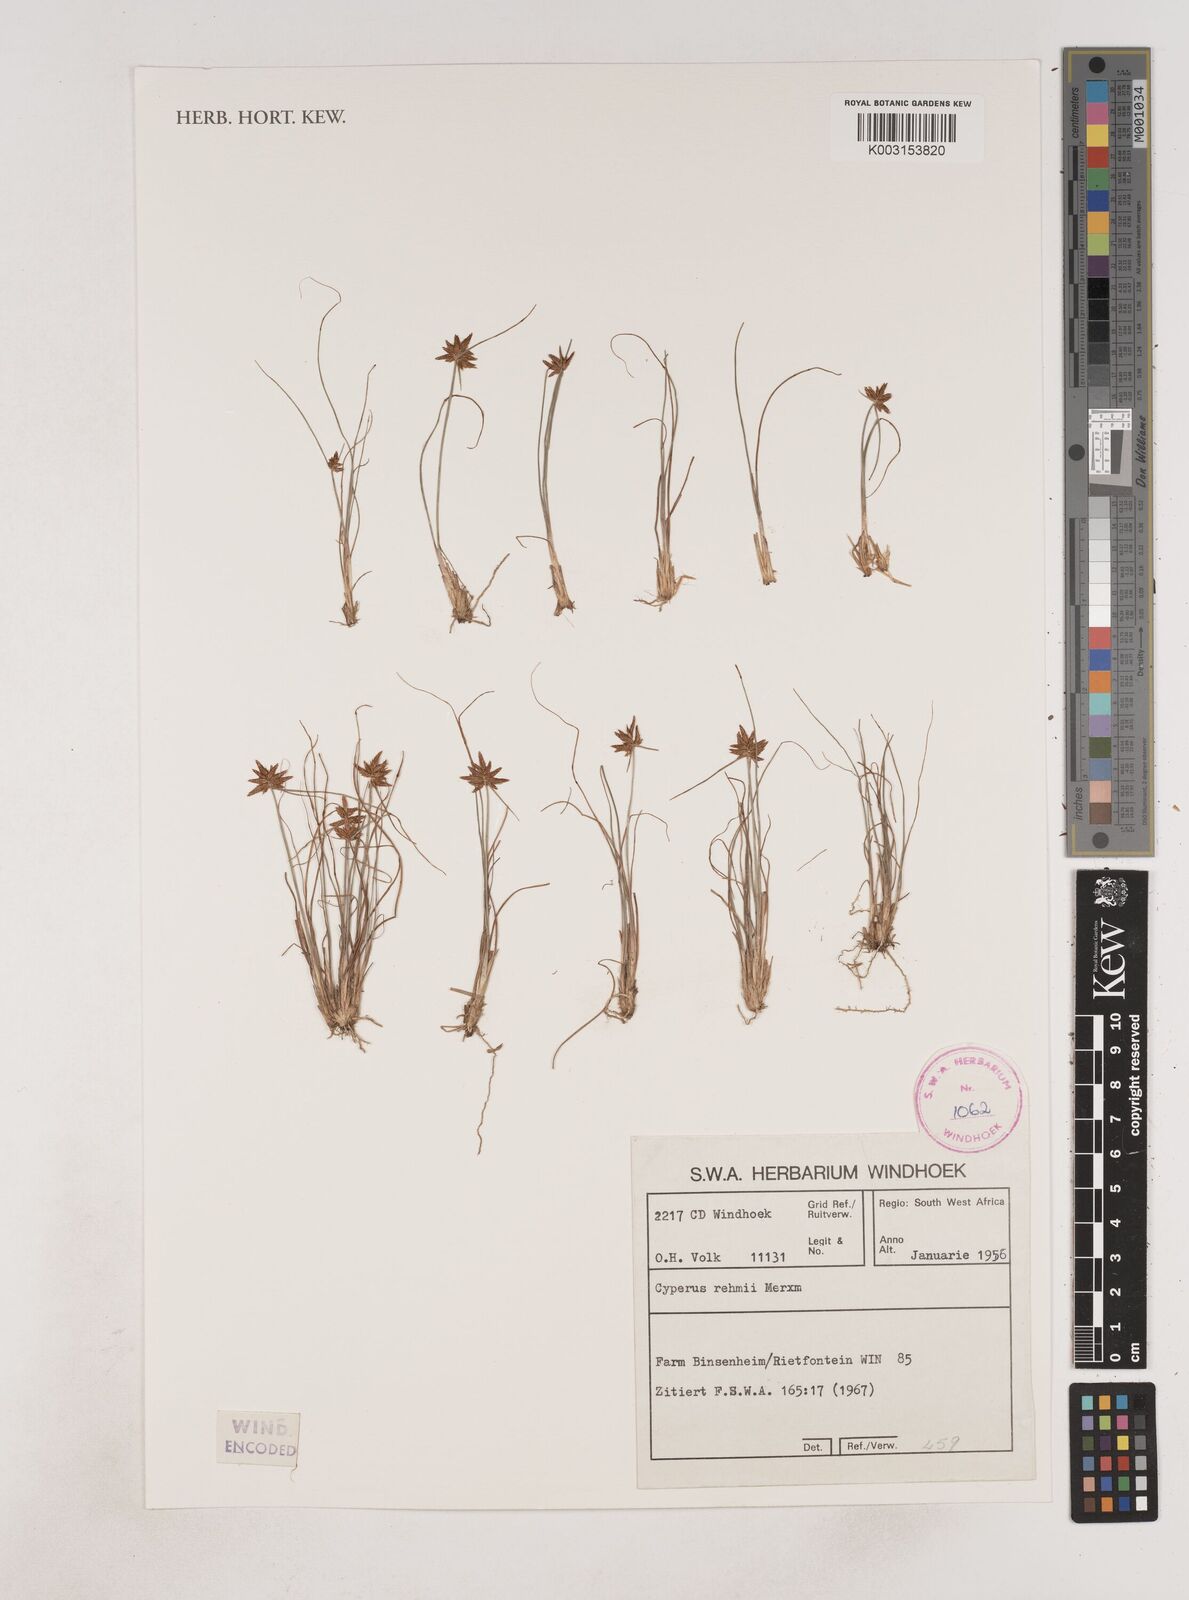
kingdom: Plantae
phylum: Tracheophyta
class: Liliopsida
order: Poales
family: Cyperaceae
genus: Cyperus
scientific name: Cyperus rehmii
